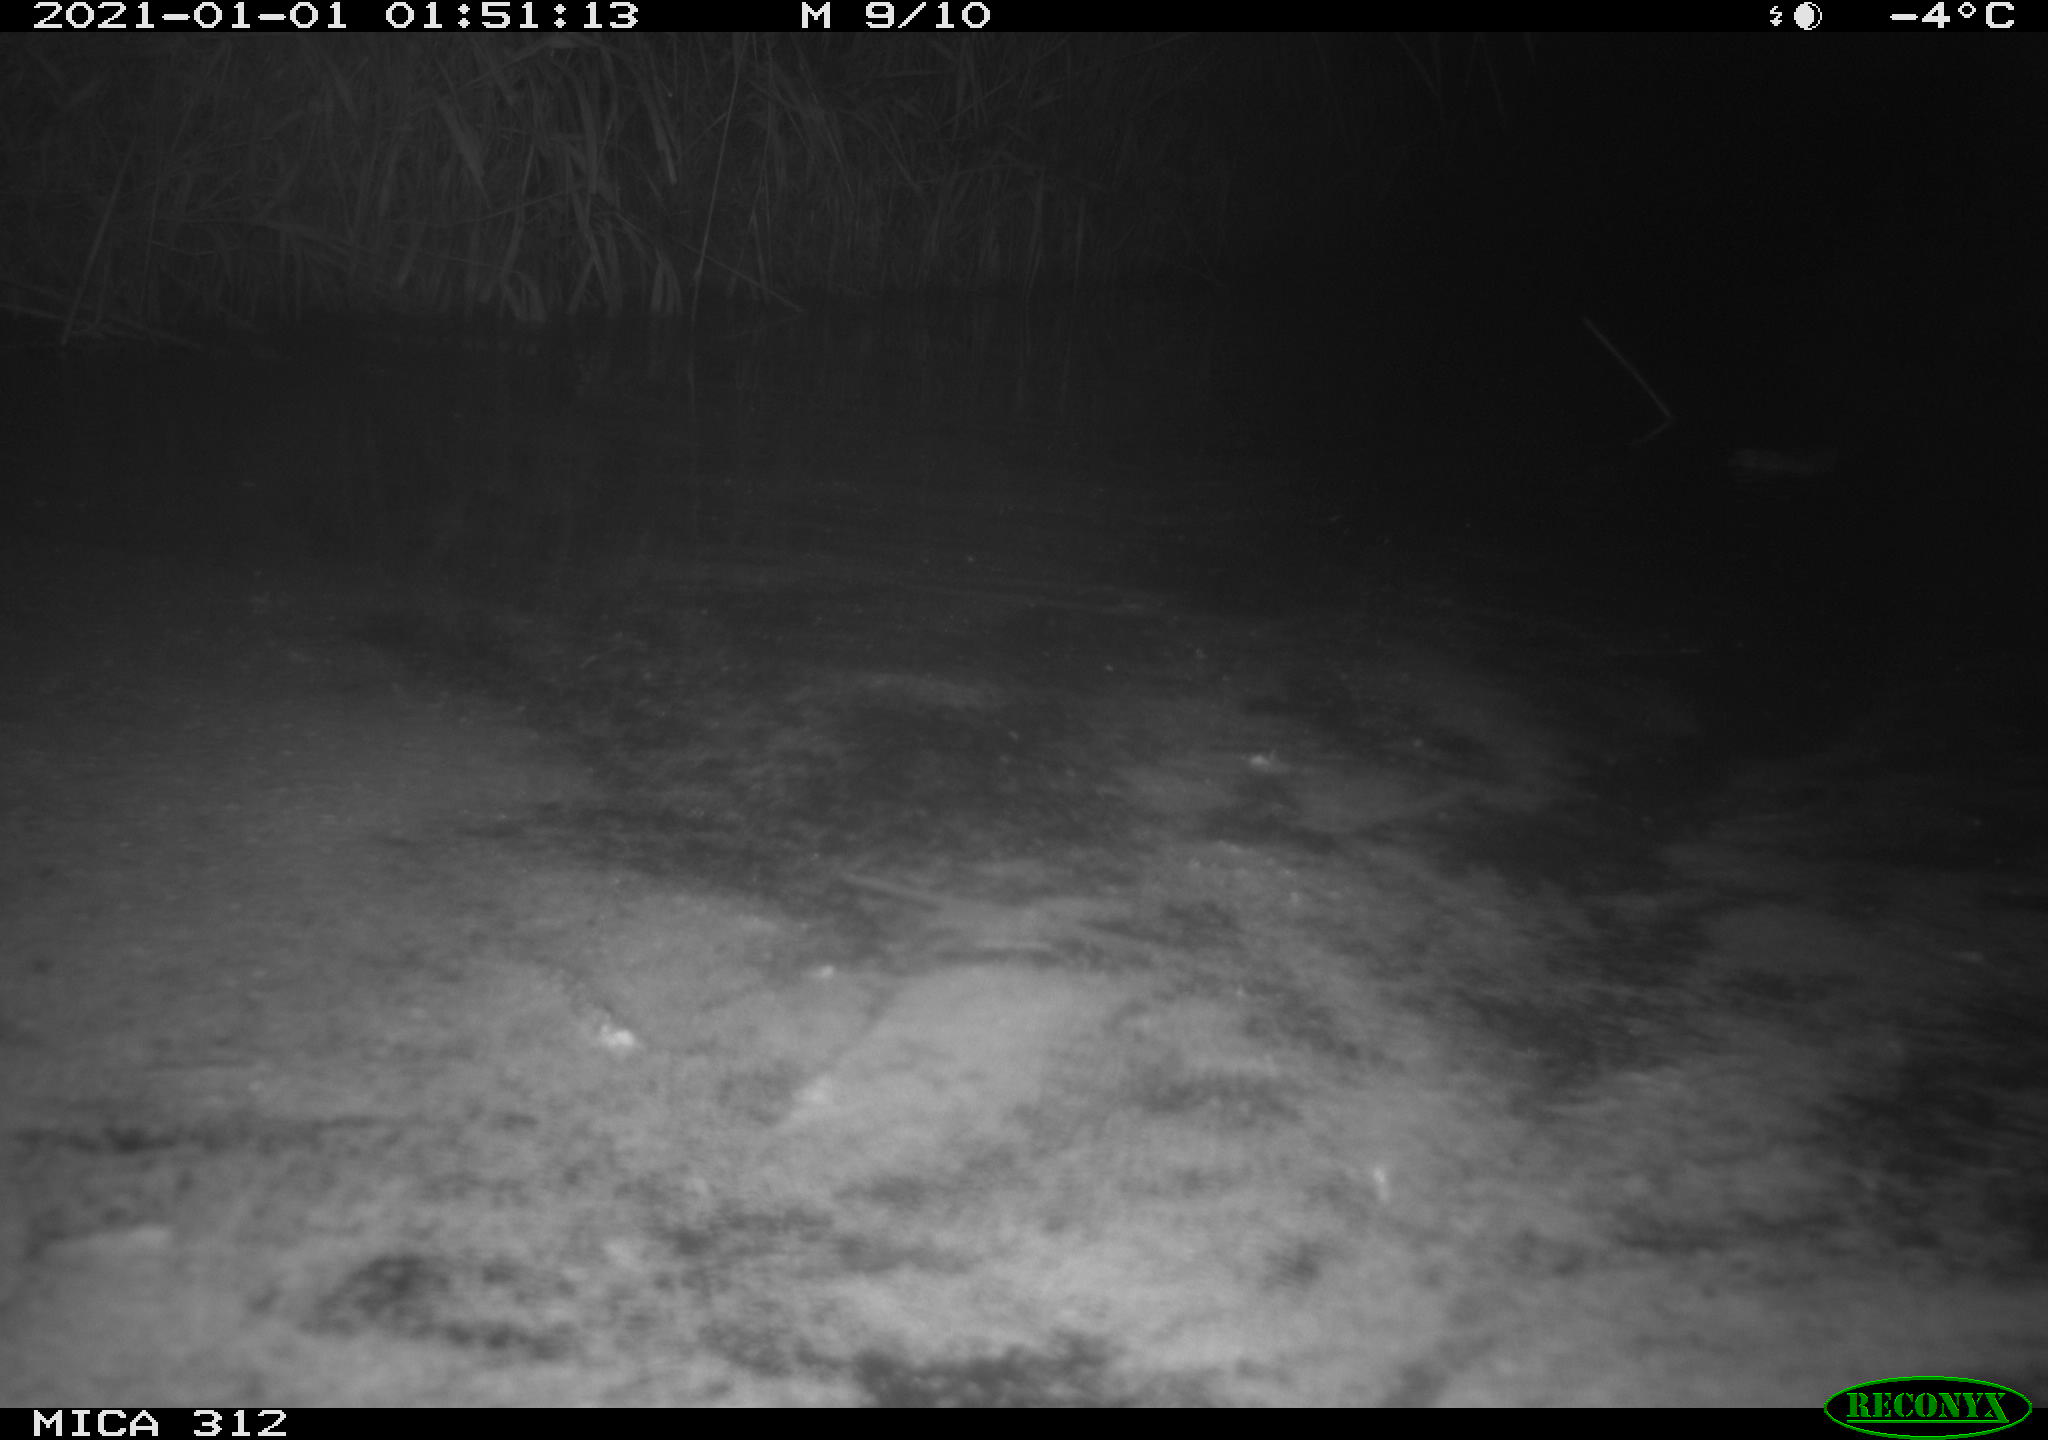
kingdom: Animalia
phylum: Chordata
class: Mammalia
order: Rodentia
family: Muridae
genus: Rattus
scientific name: Rattus norvegicus
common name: Brown rat
